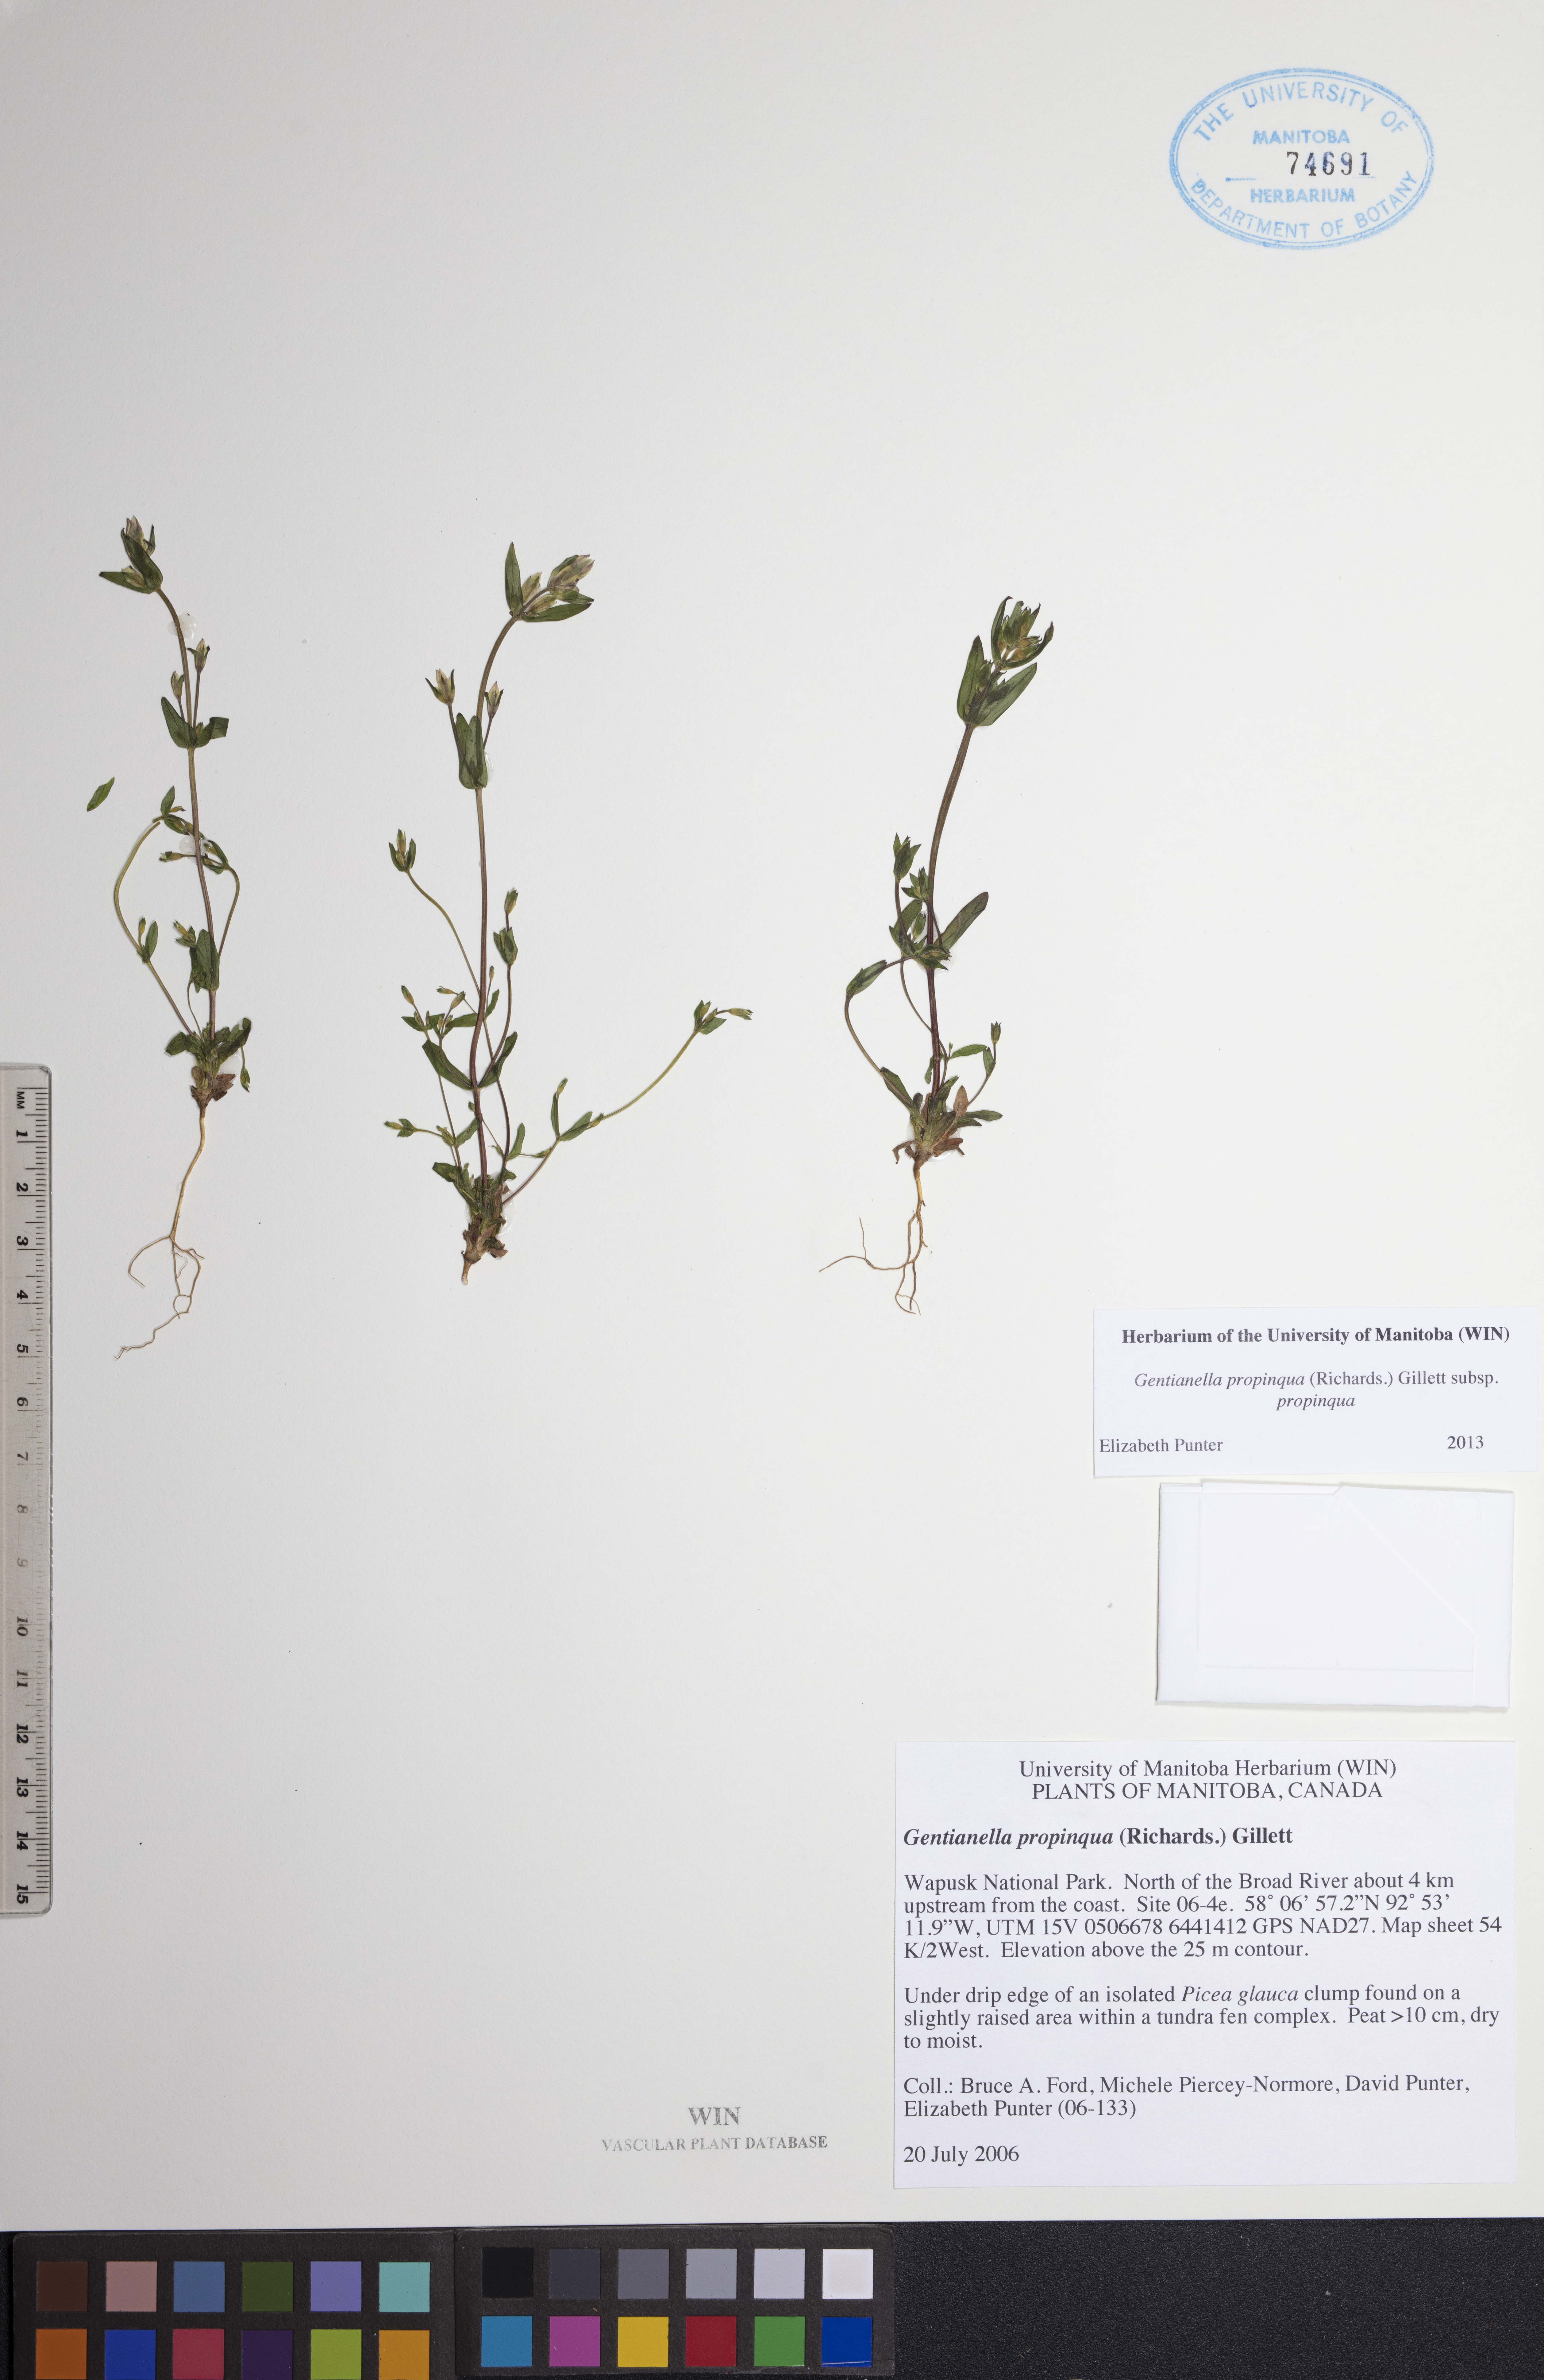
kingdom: Plantae
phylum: Tracheophyta
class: Magnoliopsida
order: Gentianales
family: Gentianaceae
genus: Gentianella
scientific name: Gentianella propinqua
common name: Four-parted dwarf-gentian
